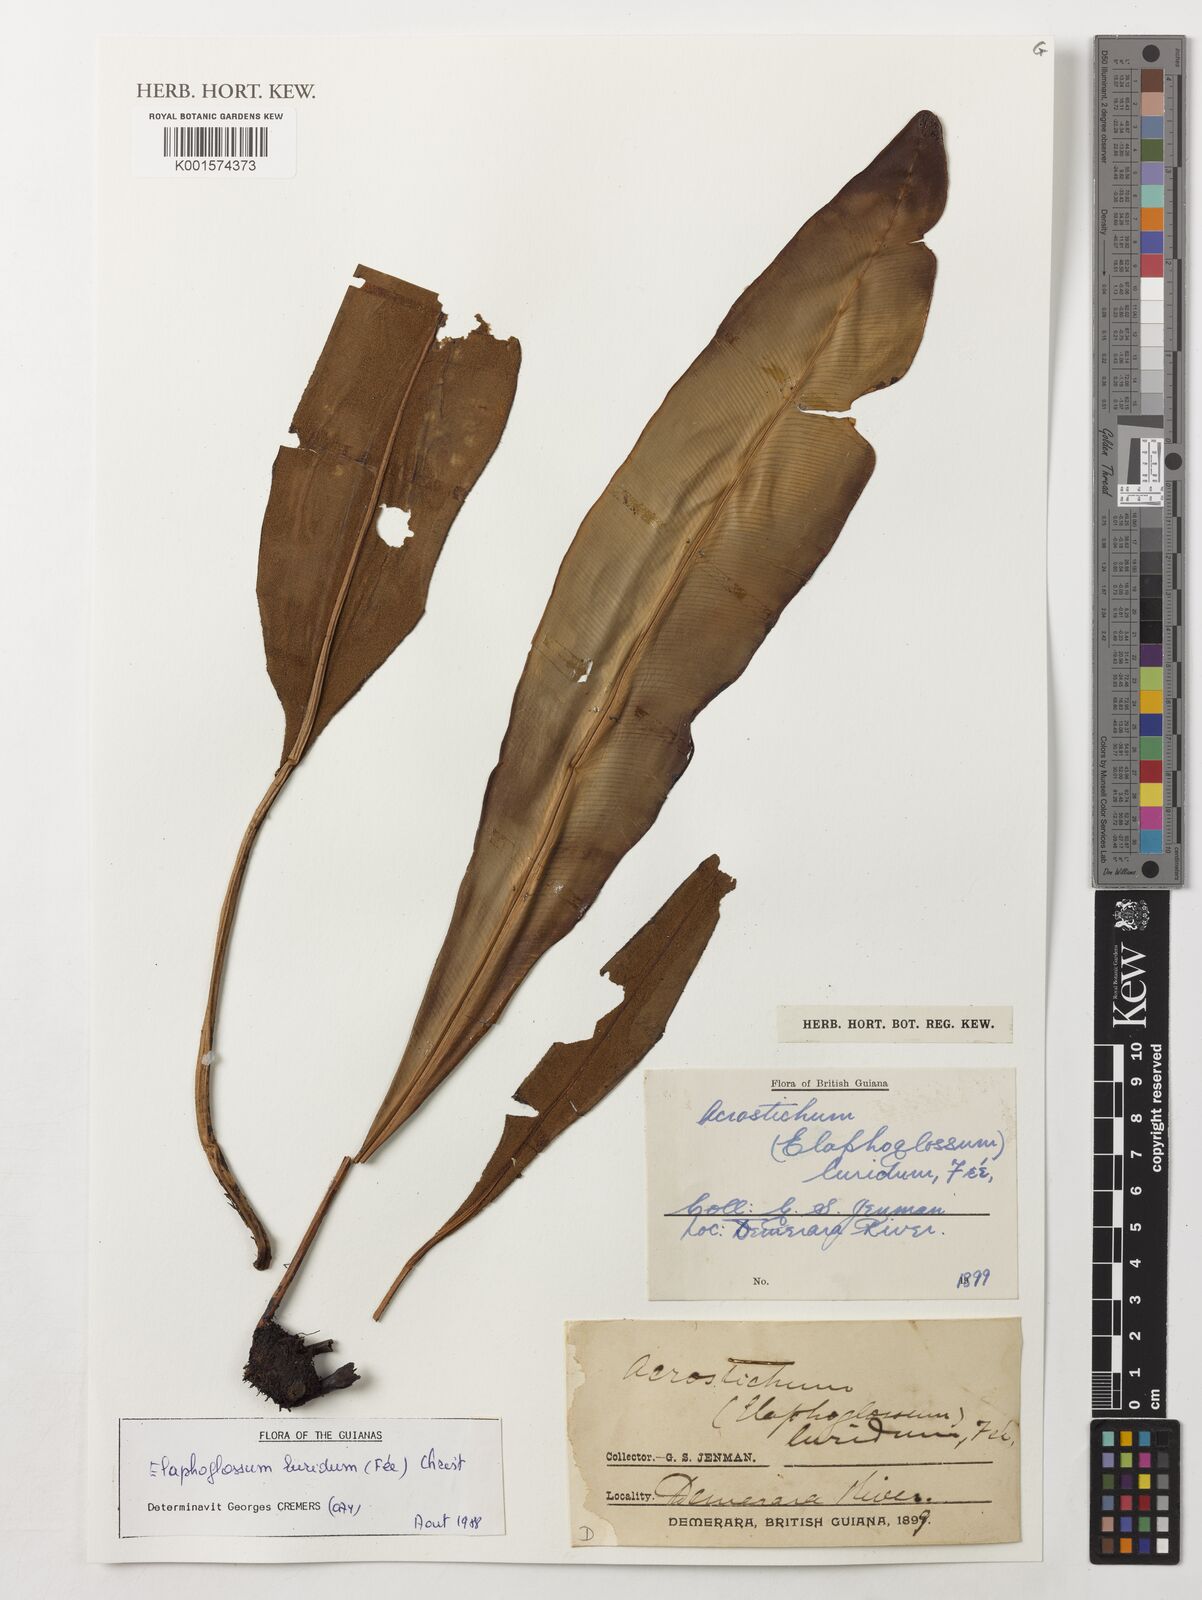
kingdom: Plantae
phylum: Tracheophyta
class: Polypodiopsida
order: Polypodiales
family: Dryopteridaceae
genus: Elaphoglossum
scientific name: Elaphoglossum luridum
